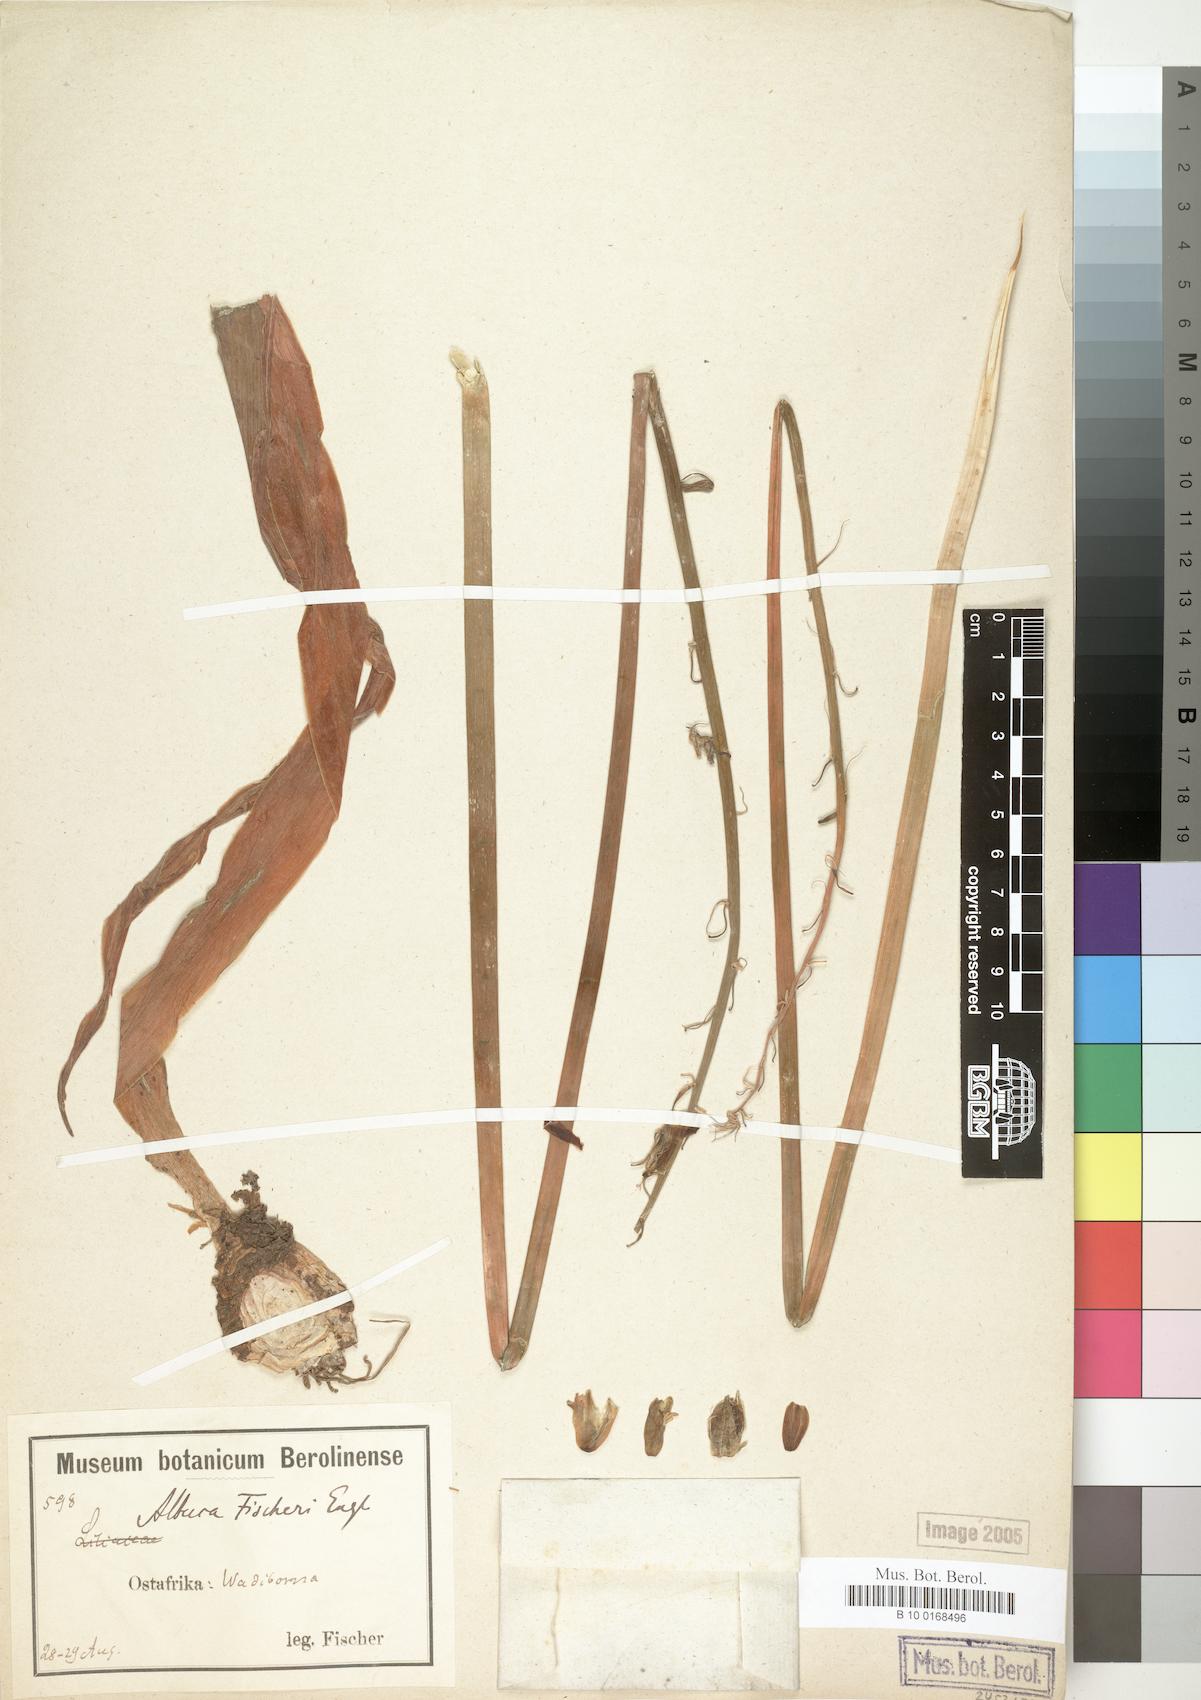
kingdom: Plantae
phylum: Tracheophyta
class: Liliopsida
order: Asparagales
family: Asparagaceae
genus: Albuca
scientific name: Albuca abyssinica
